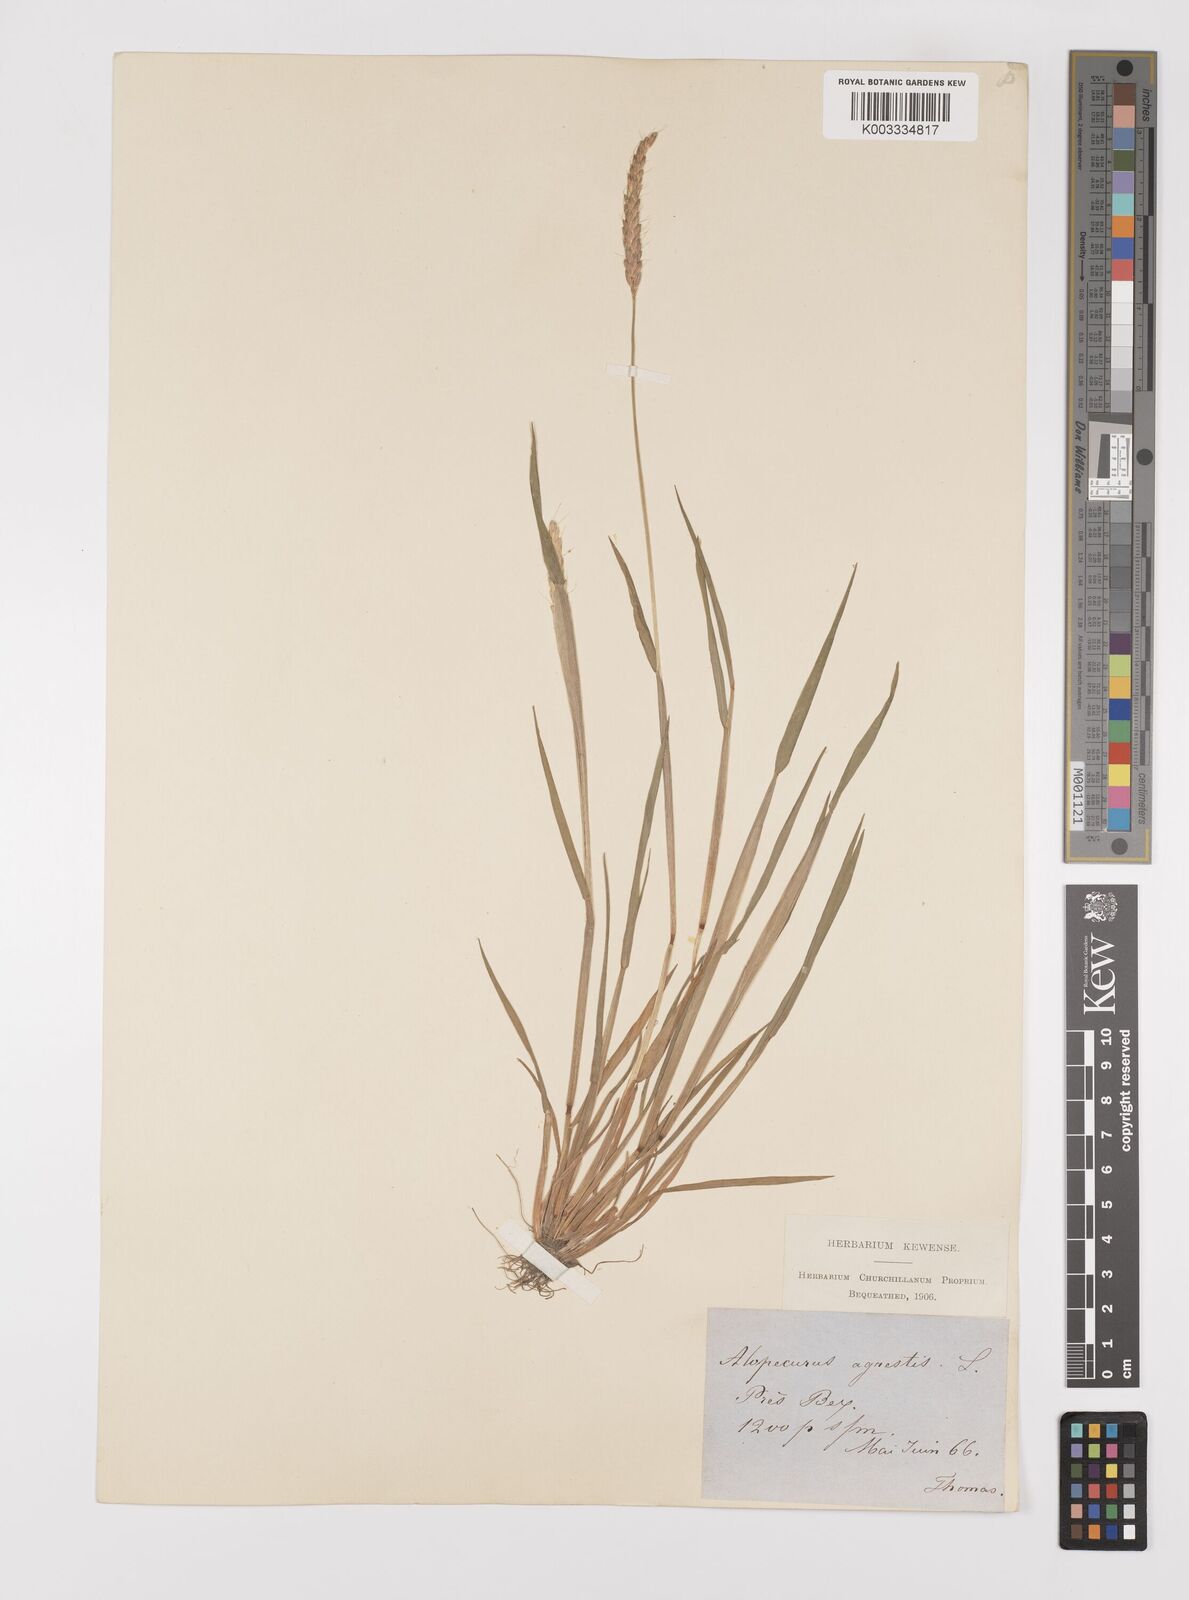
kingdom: Plantae
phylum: Tracheophyta
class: Liliopsida
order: Poales
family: Poaceae
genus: Alopecurus
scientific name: Alopecurus myosuroides
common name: Black-grass
